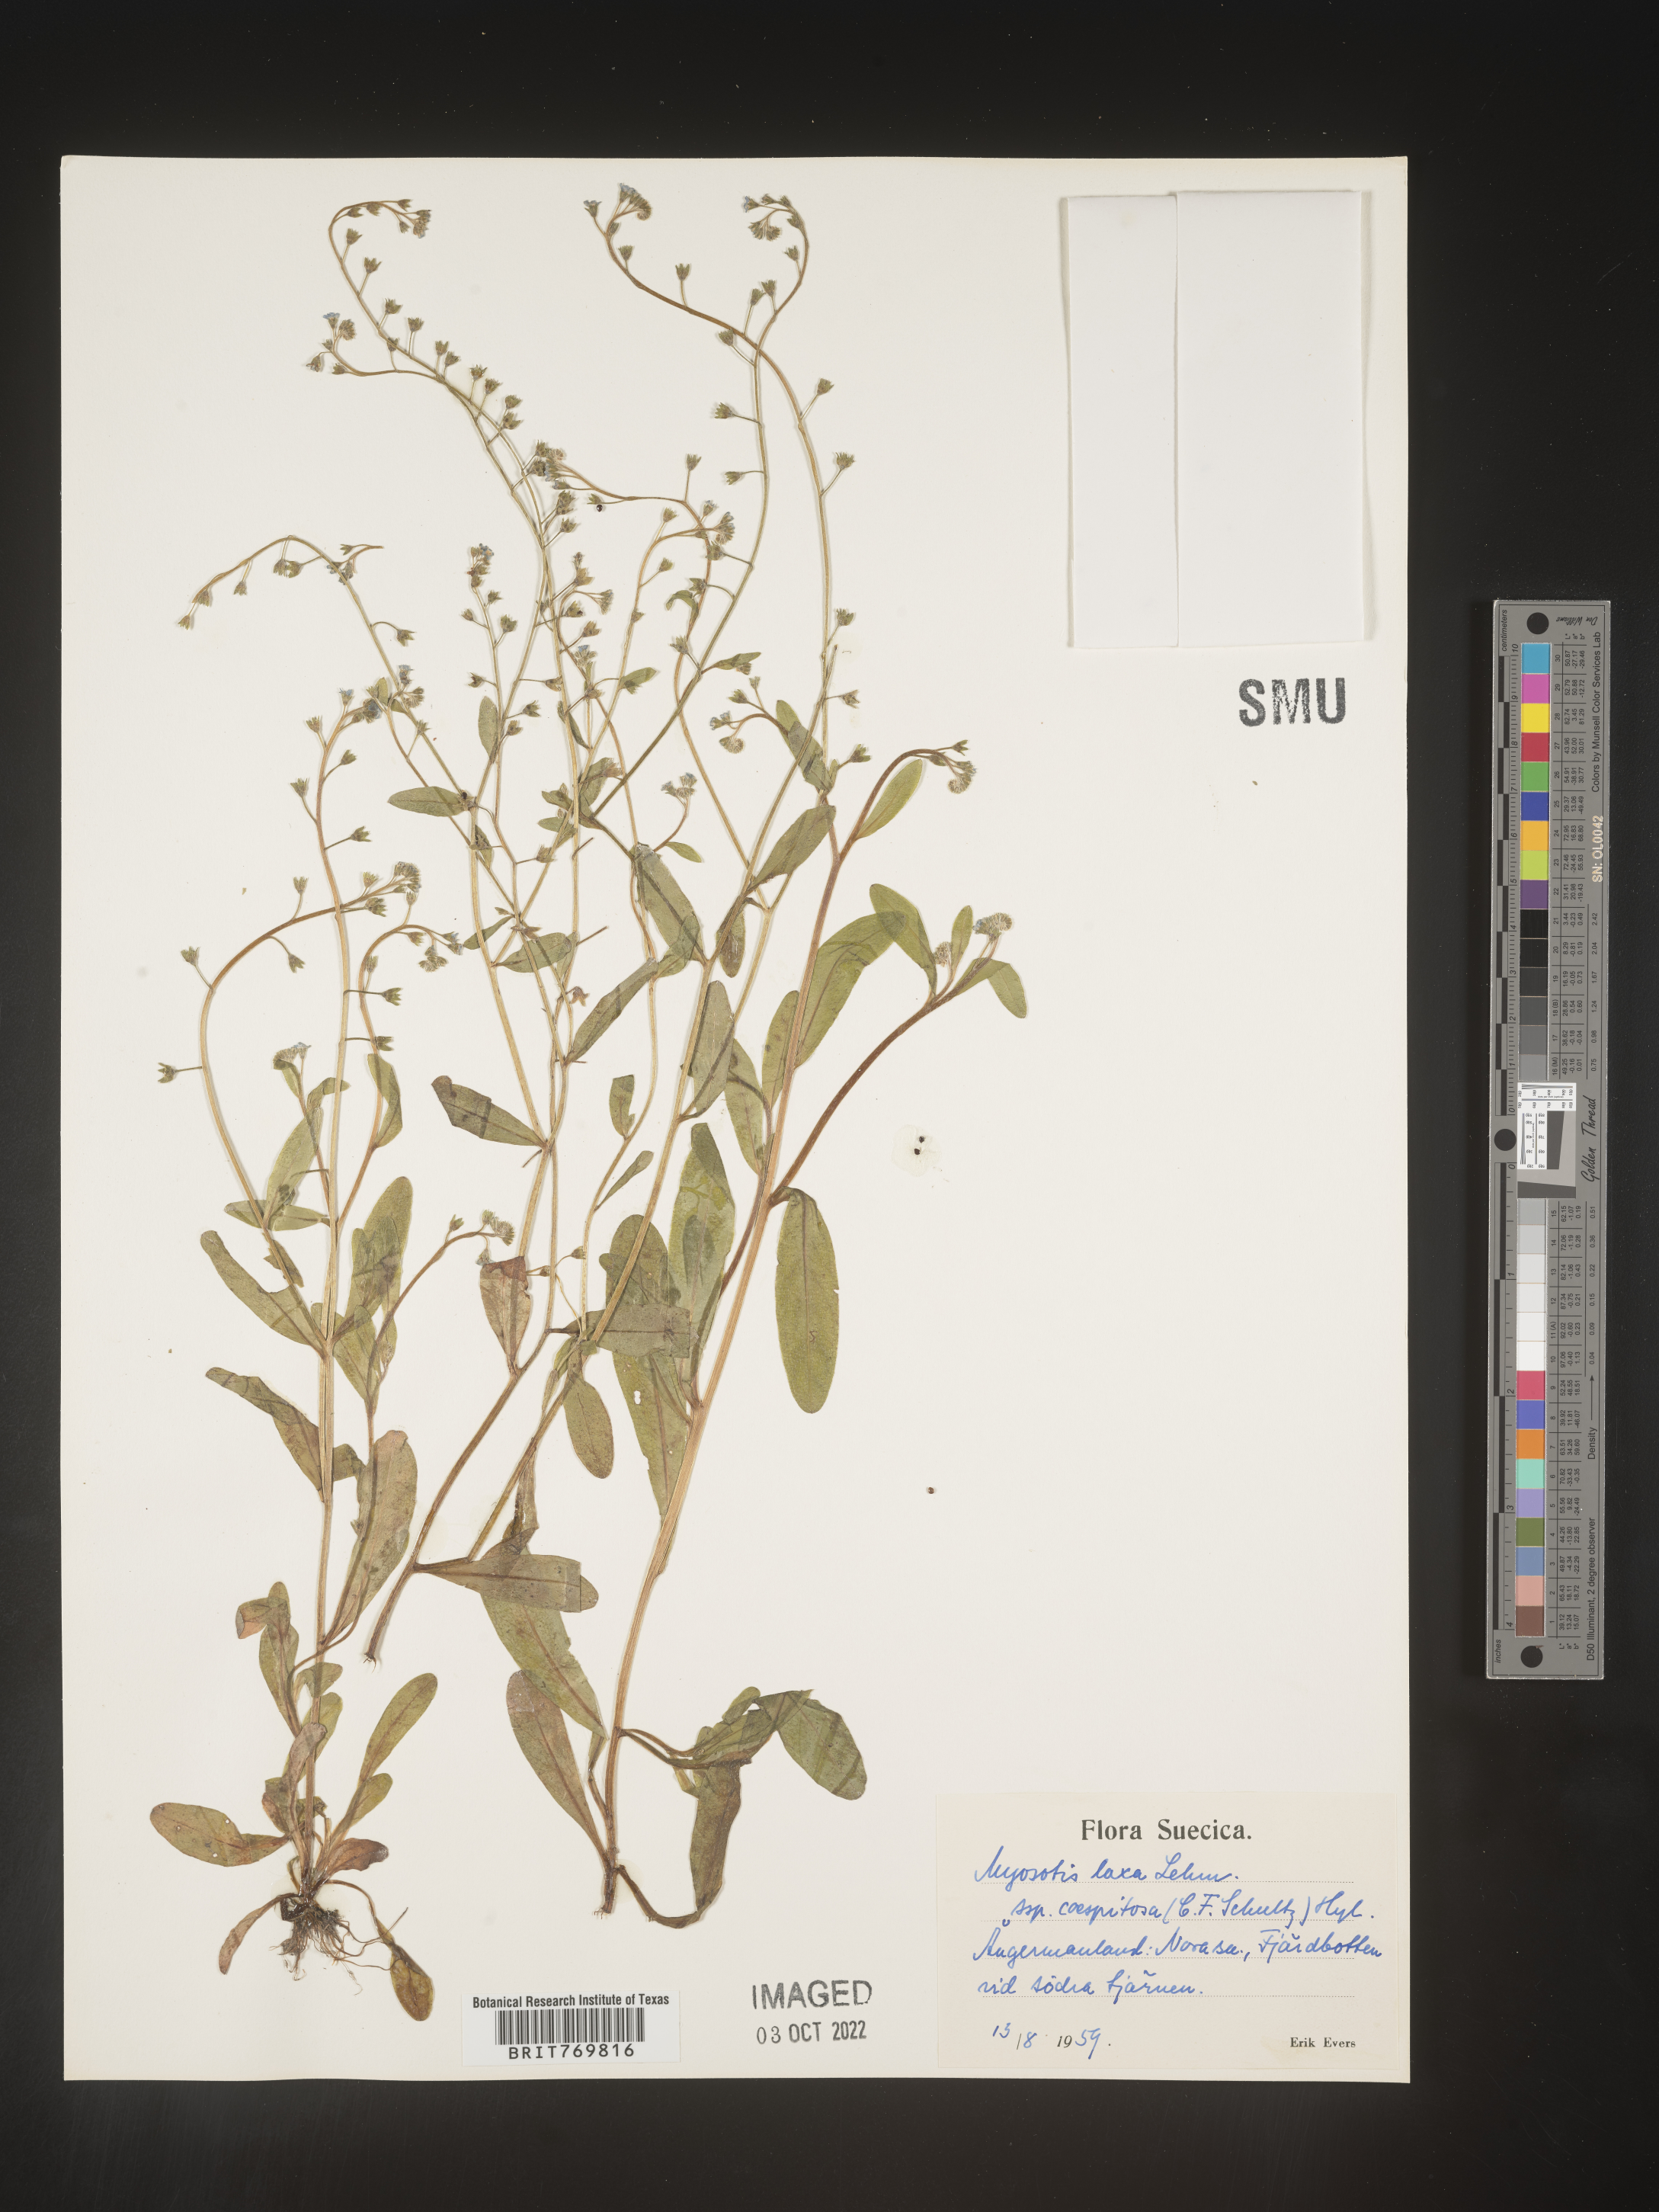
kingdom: Plantae
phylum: Tracheophyta
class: Magnoliopsida
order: Boraginales
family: Boraginaceae
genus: Myosotis
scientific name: Myosotis
